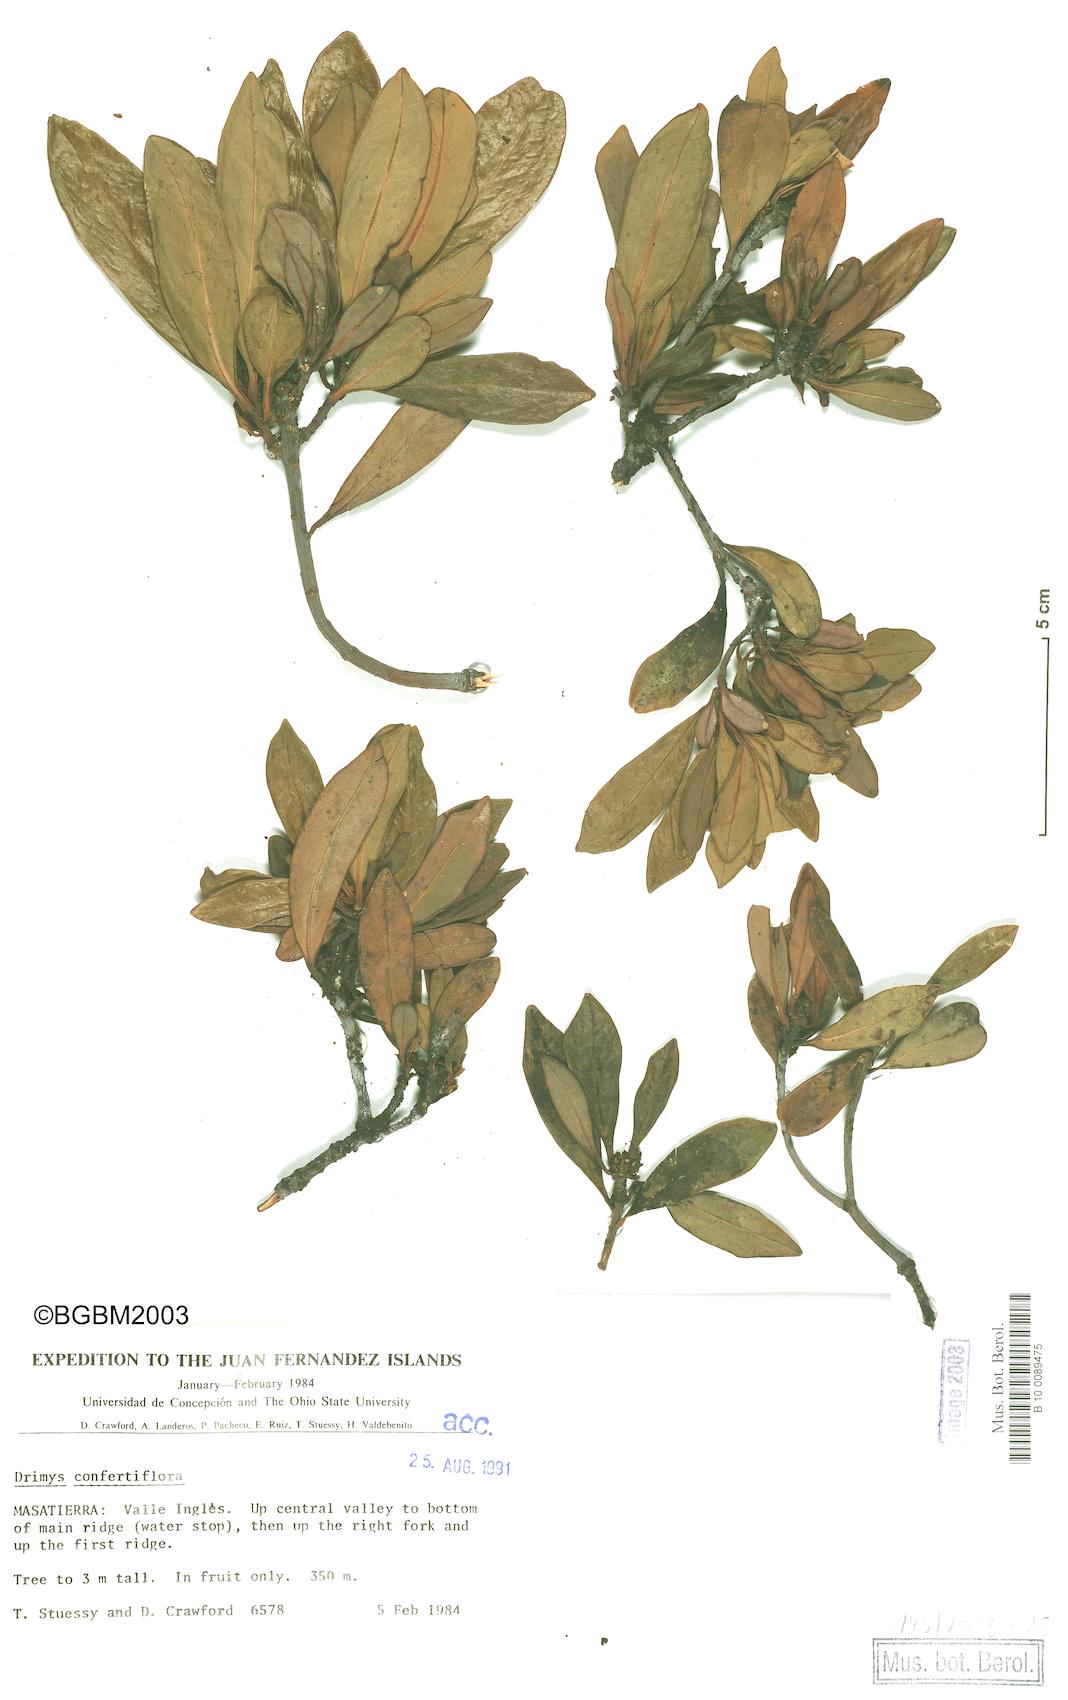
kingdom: Plantae
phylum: Tracheophyta
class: Magnoliopsida
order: Canellales
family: Winteraceae
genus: Drimys
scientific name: Drimys confertiflora
